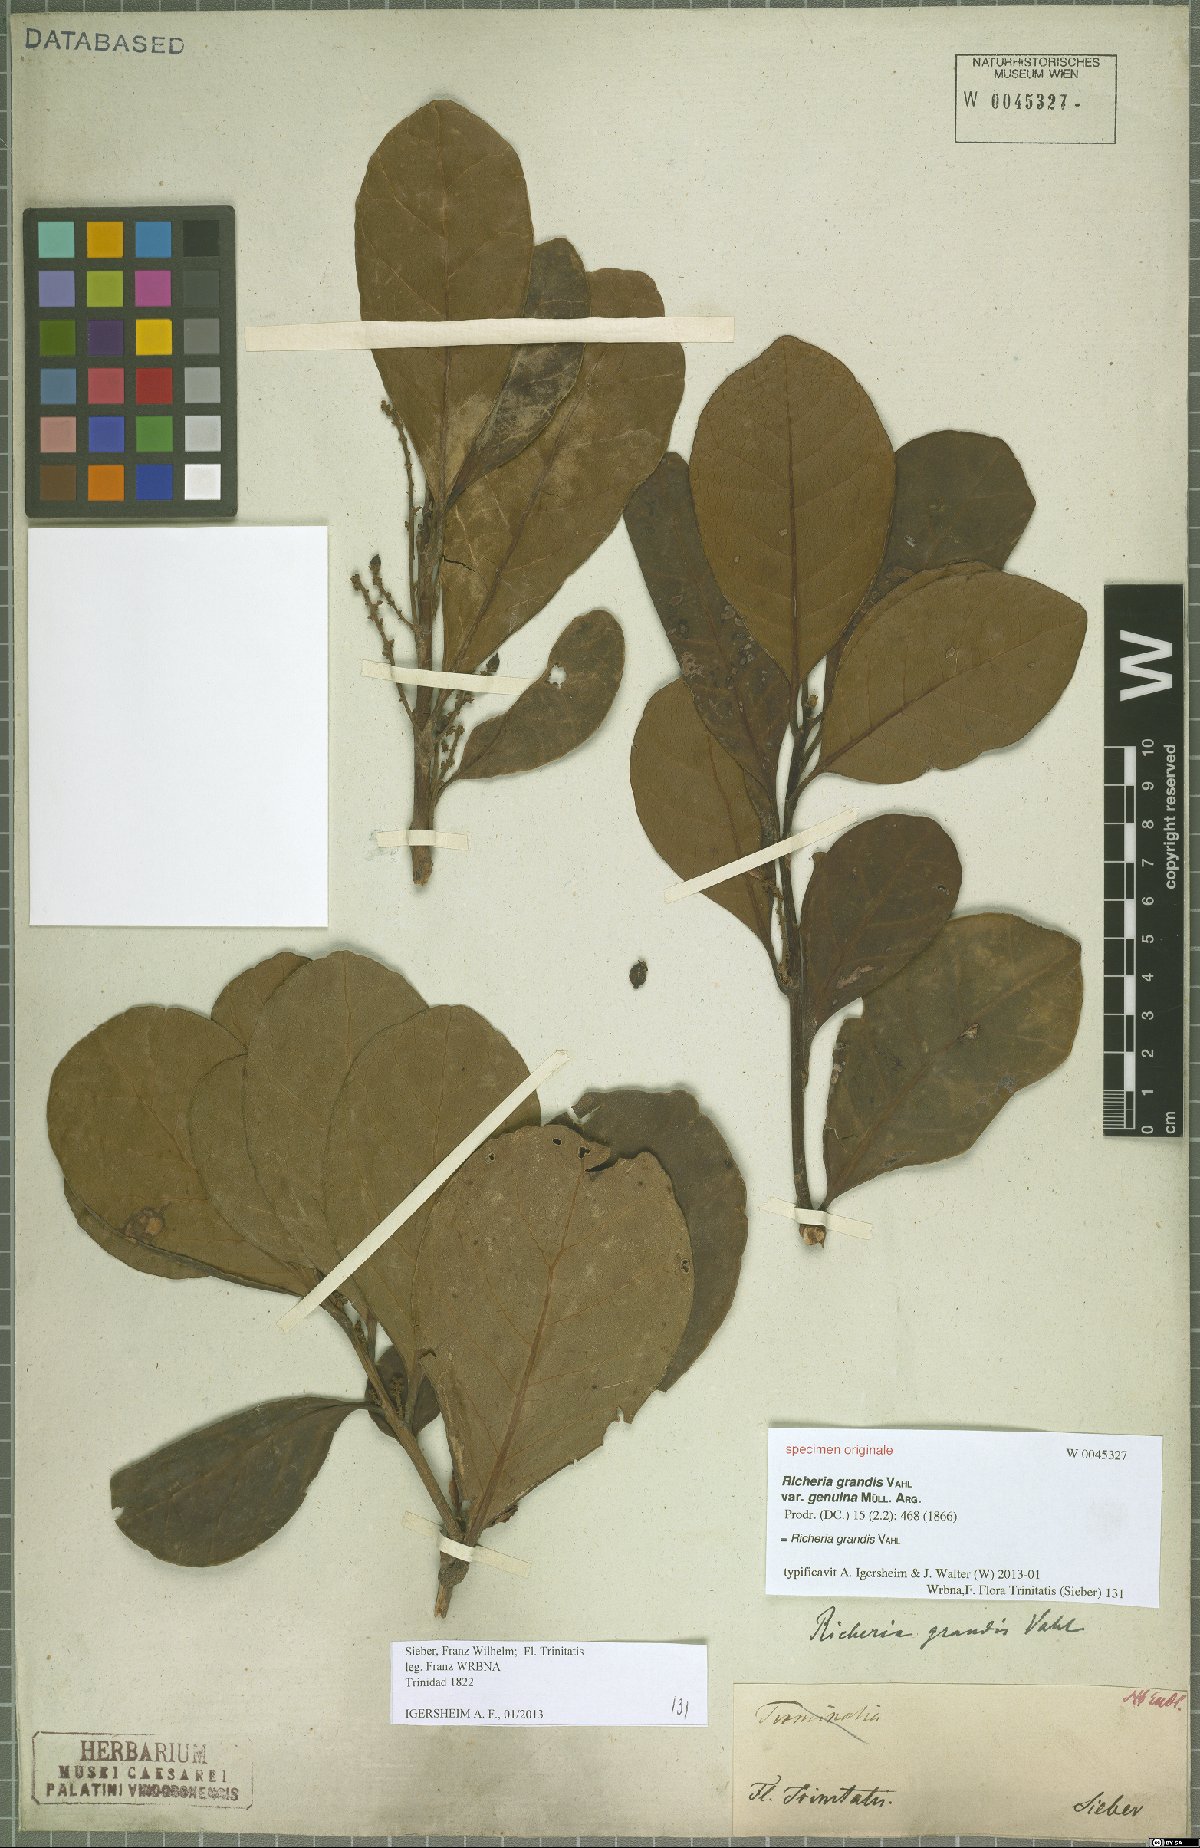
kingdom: Plantae
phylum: Tracheophyta
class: Magnoliopsida
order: Malpighiales
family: Phyllanthaceae
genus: Richeria
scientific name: Richeria grandis
